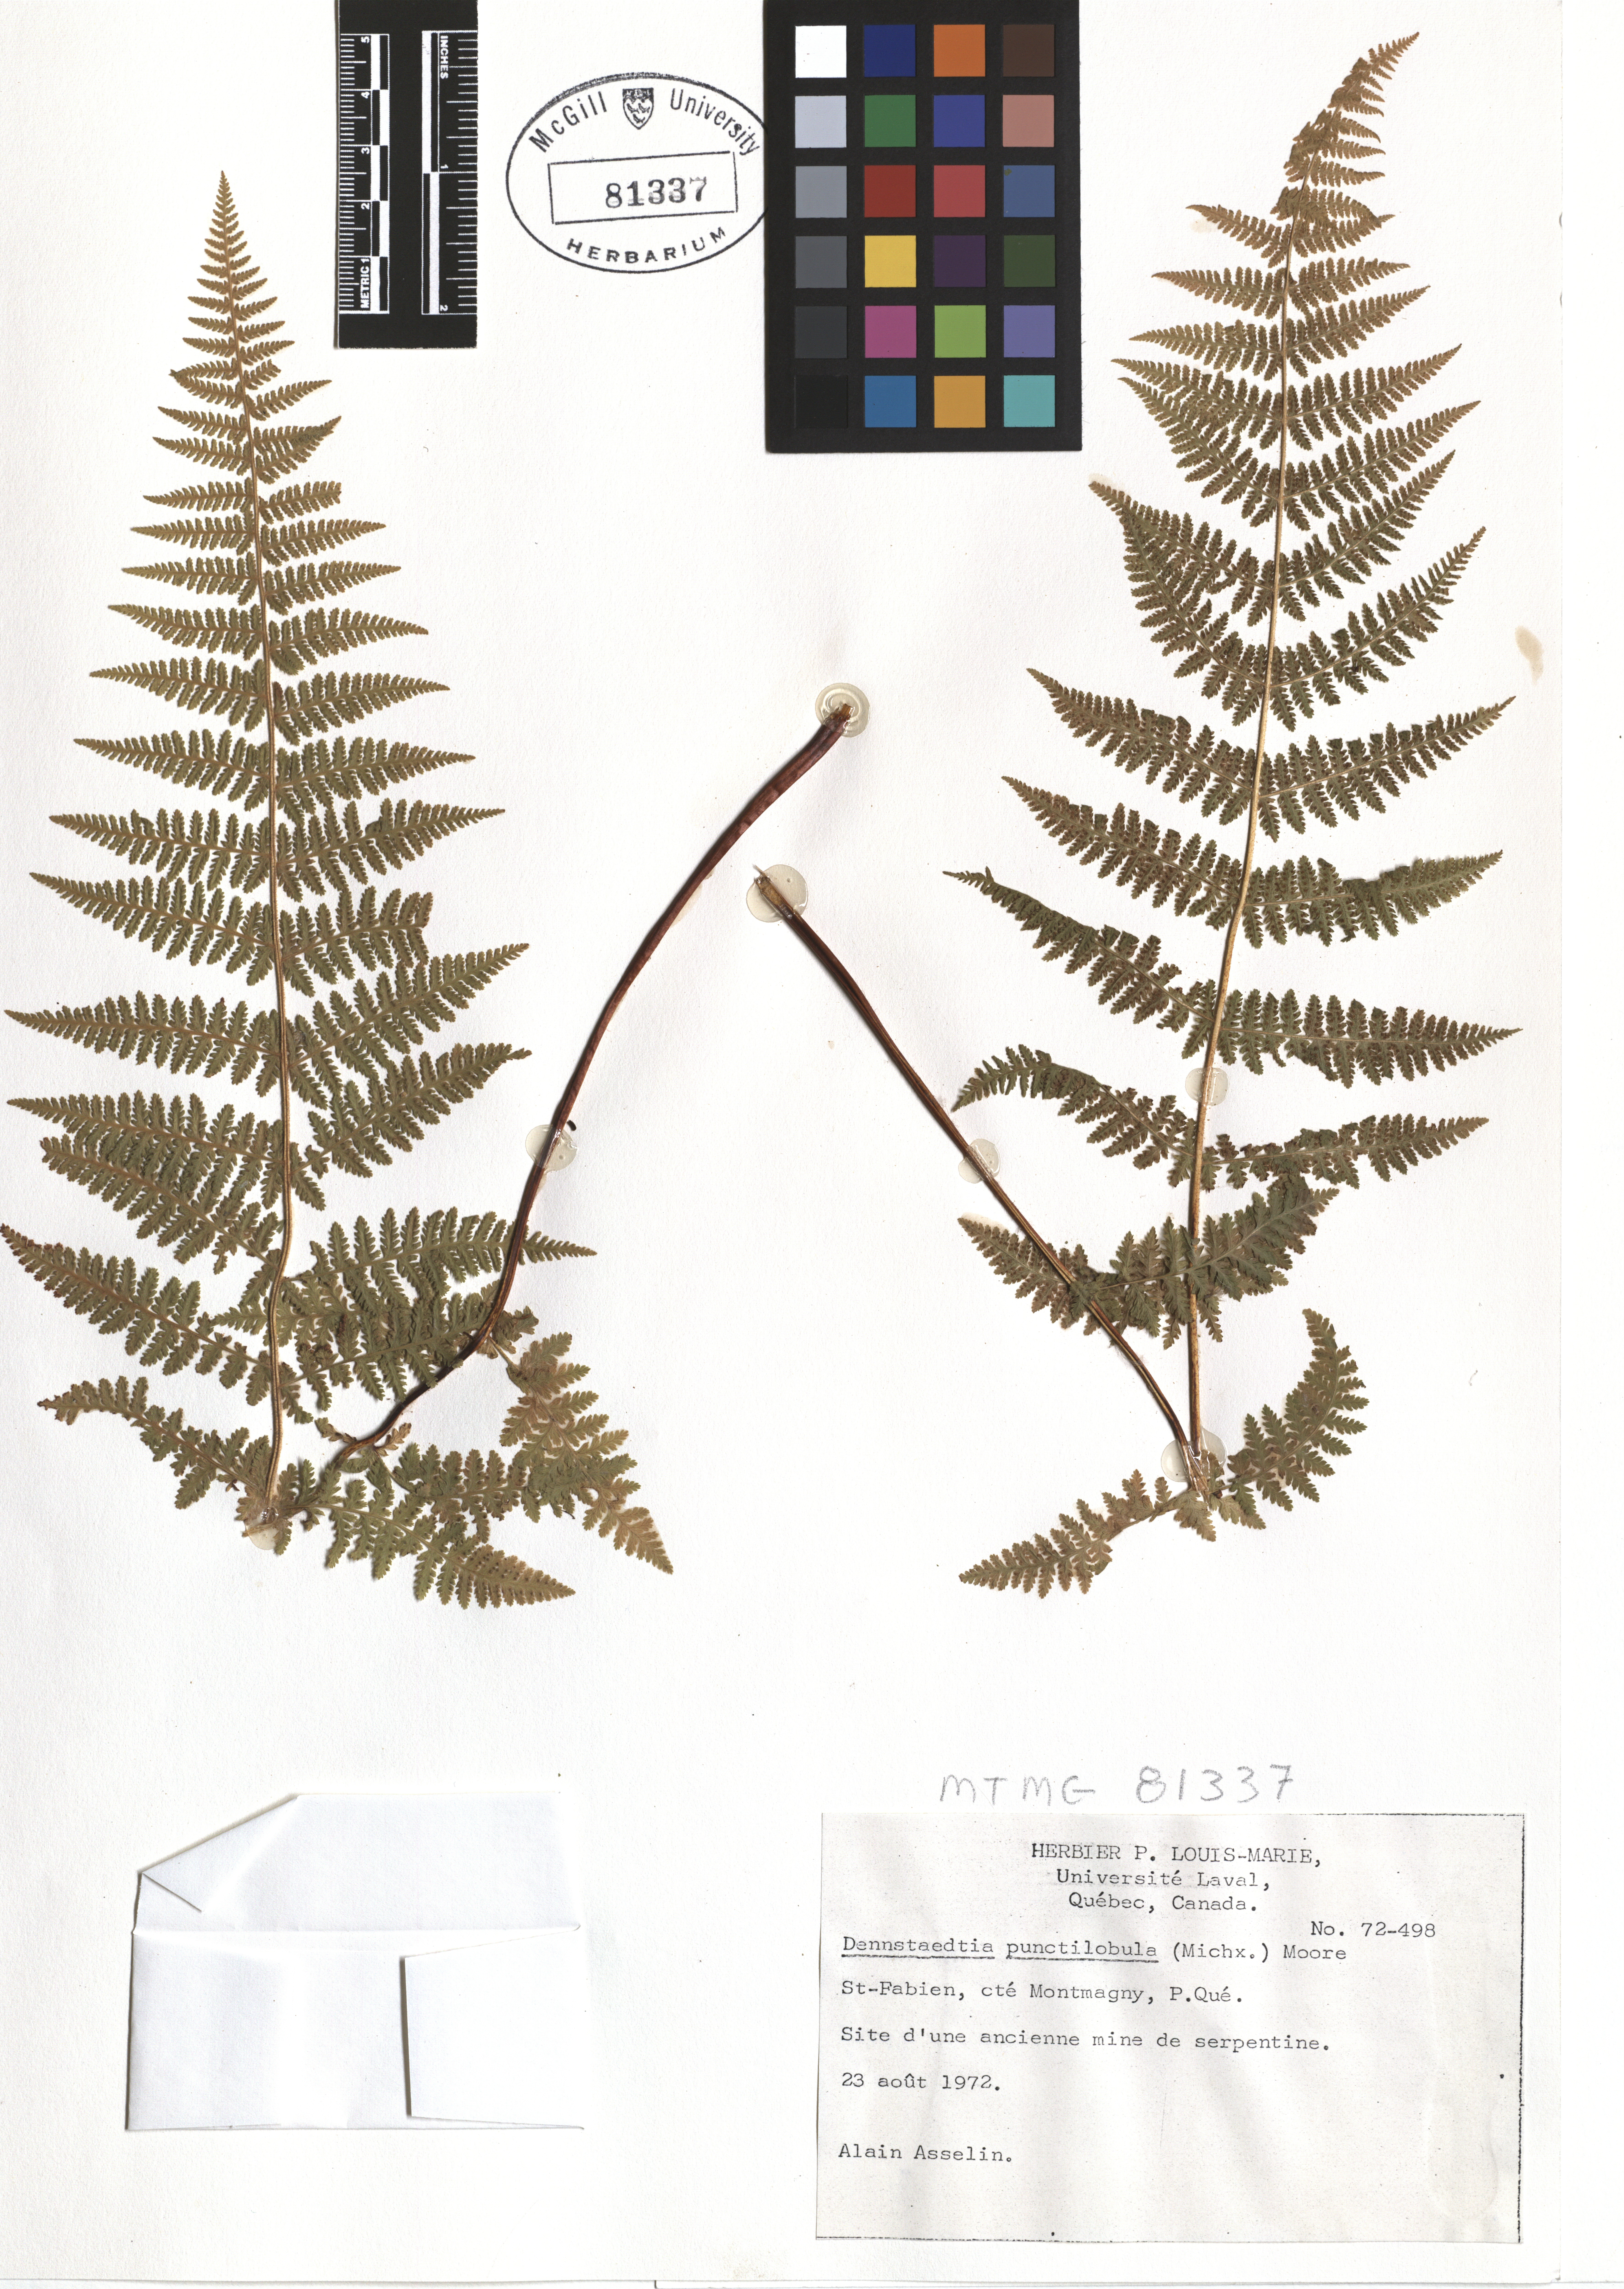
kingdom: Plantae
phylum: Tracheophyta
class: Polypodiopsida
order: Polypodiales
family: Dennstaedtiaceae
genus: Sitobolium
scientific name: Sitobolium punctilobum
